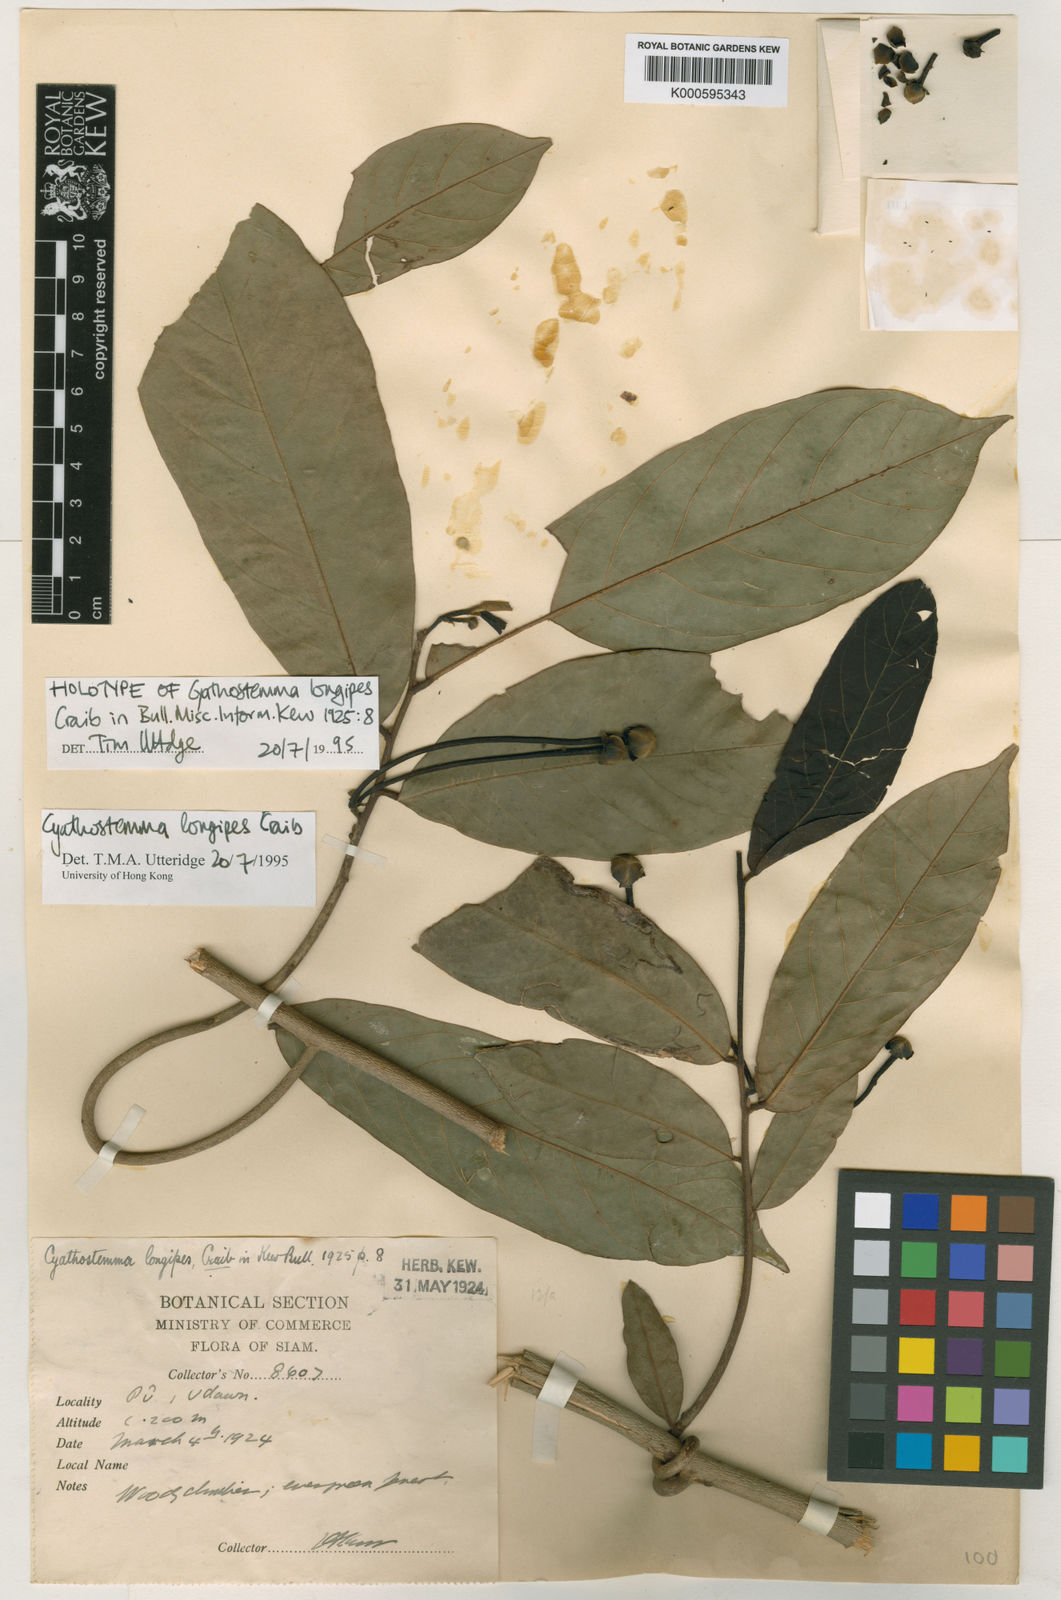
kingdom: Plantae
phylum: Tracheophyta
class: Magnoliopsida
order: Magnoliales
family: Annonaceae
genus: Uvaria
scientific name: Uvaria longipes
